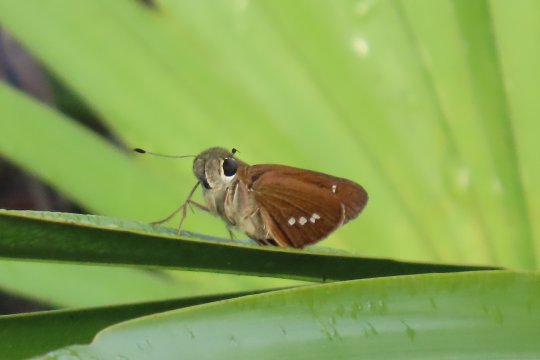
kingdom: Animalia
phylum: Arthropoda
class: Insecta
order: Lepidoptera
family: Hesperiidae
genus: Calpodes
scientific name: Calpodes ethlius
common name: Brazilian Skipper
